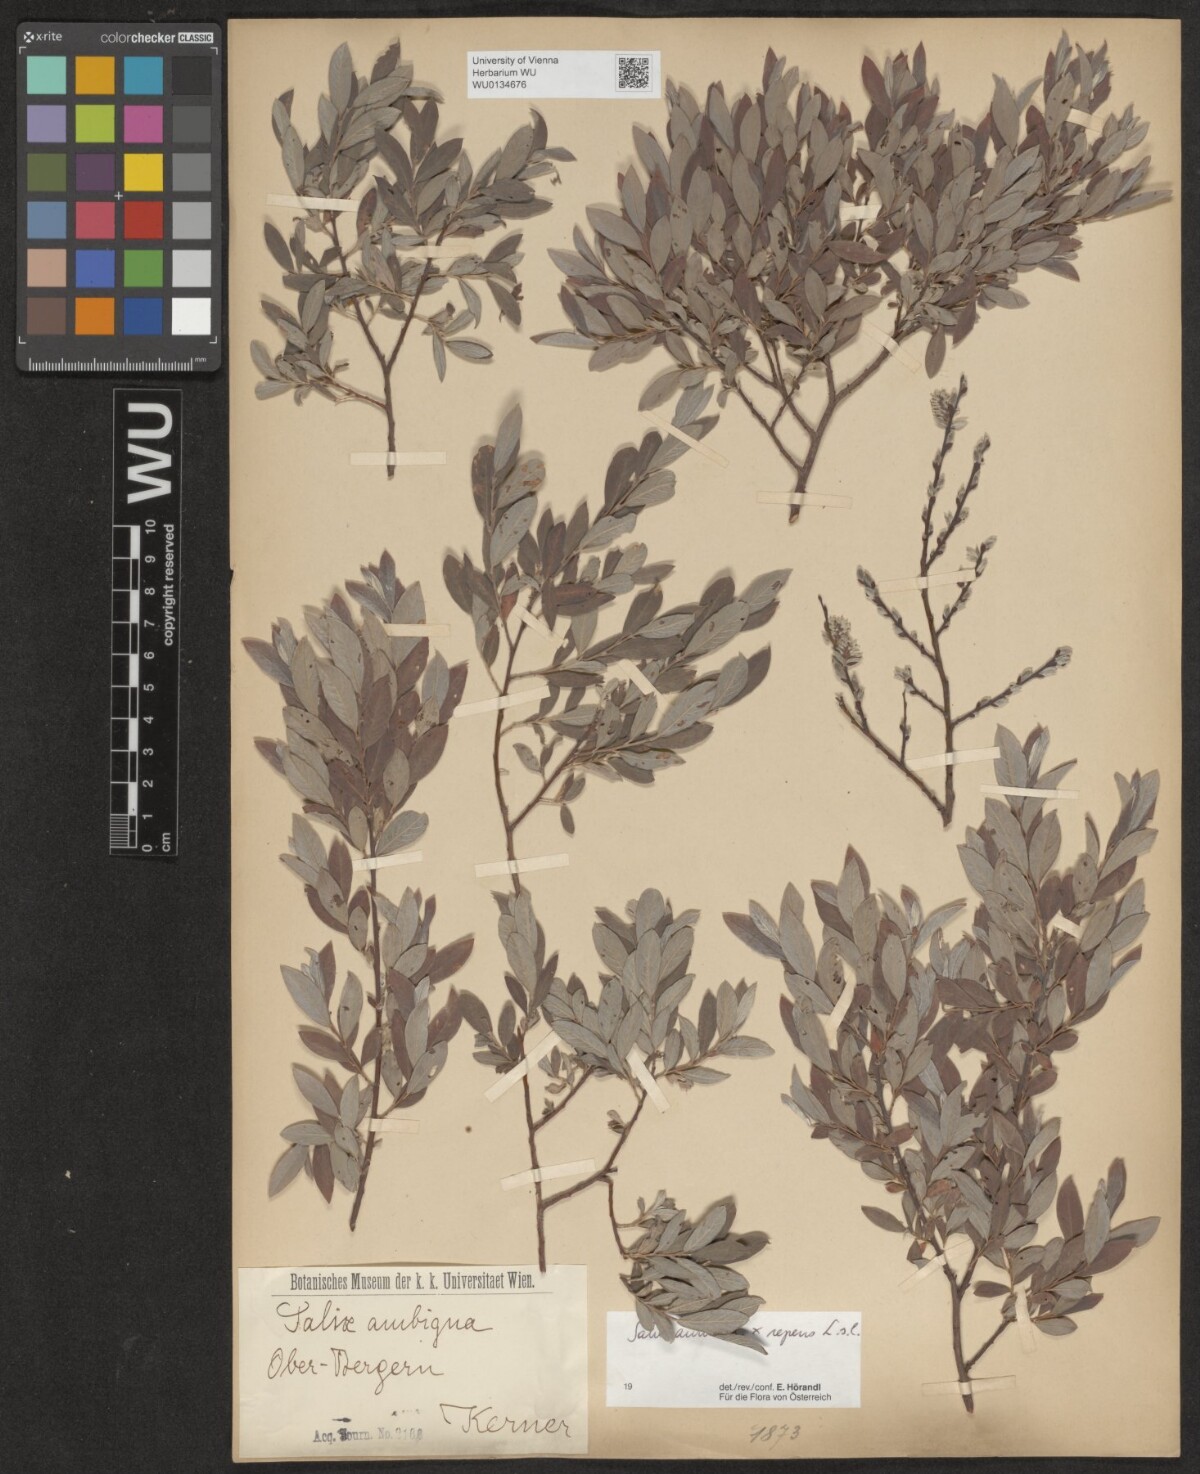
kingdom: Plantae
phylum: Tracheophyta
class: Magnoliopsida
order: Malpighiales
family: Salicaceae
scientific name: Salicaceae
